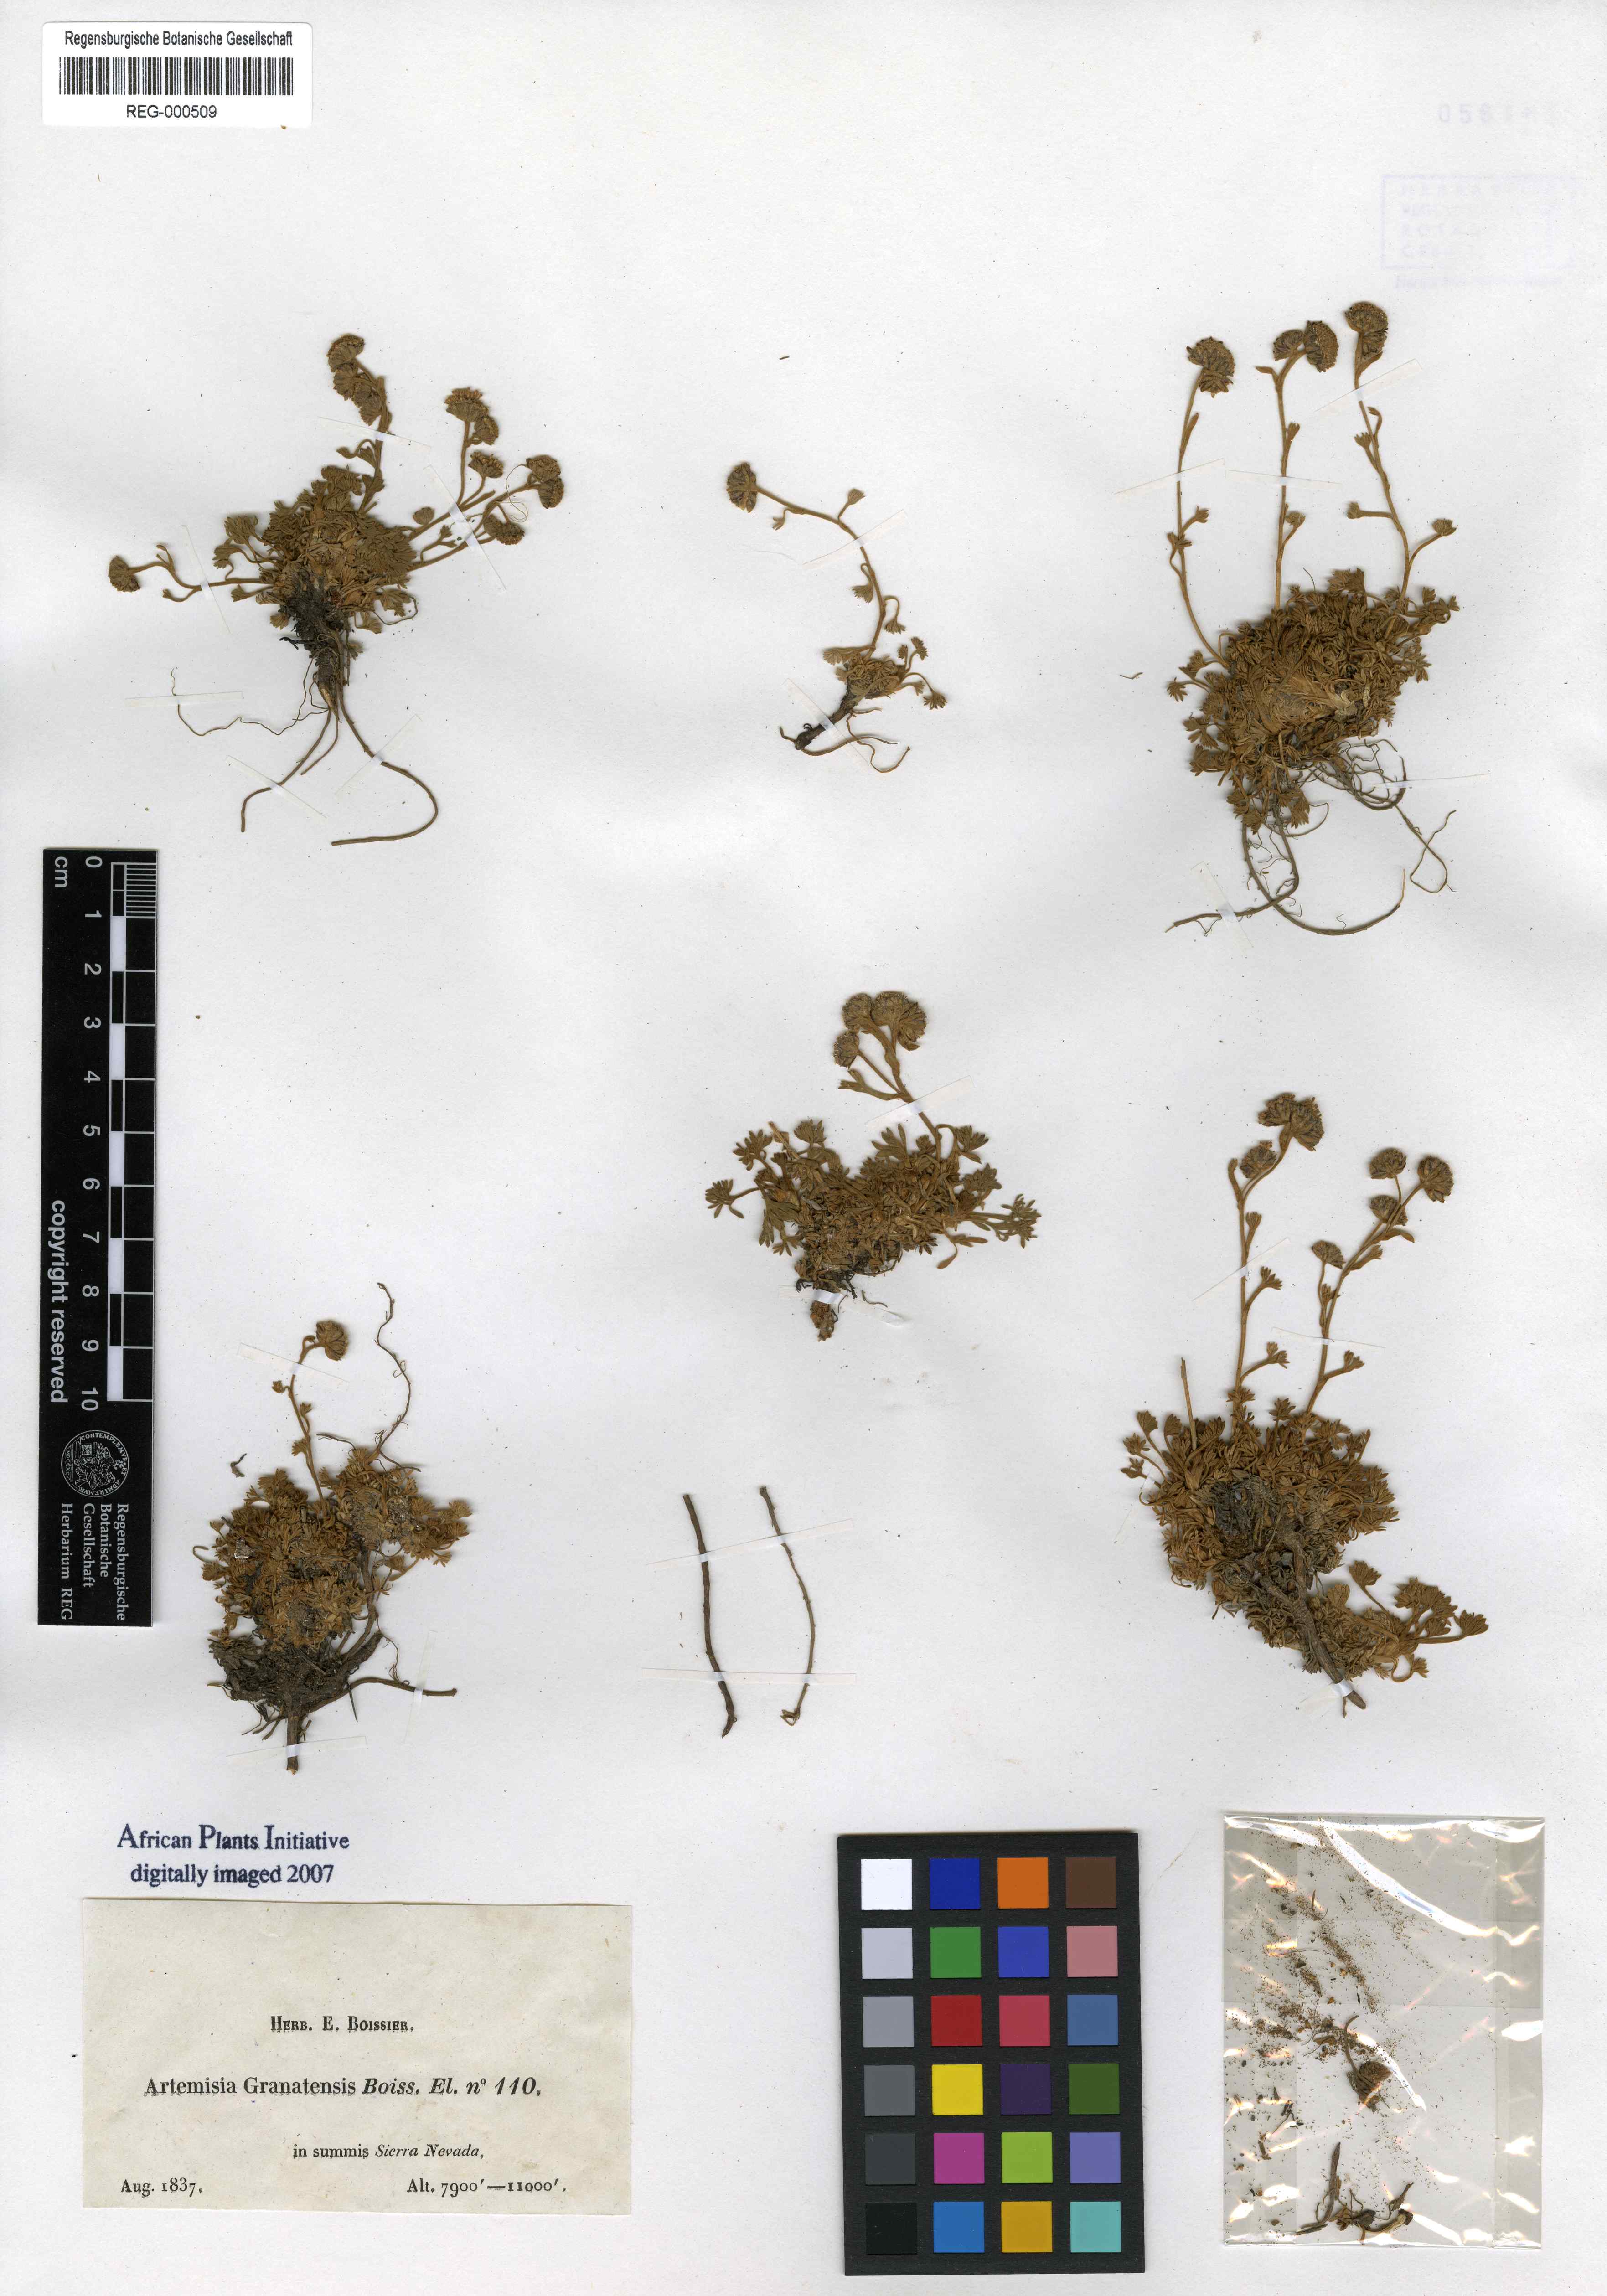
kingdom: Plantae
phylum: Tracheophyta
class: Magnoliopsida
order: Asterales
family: Asteraceae
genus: Artemisia
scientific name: Artemisia granatensis
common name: Royal chamomile
